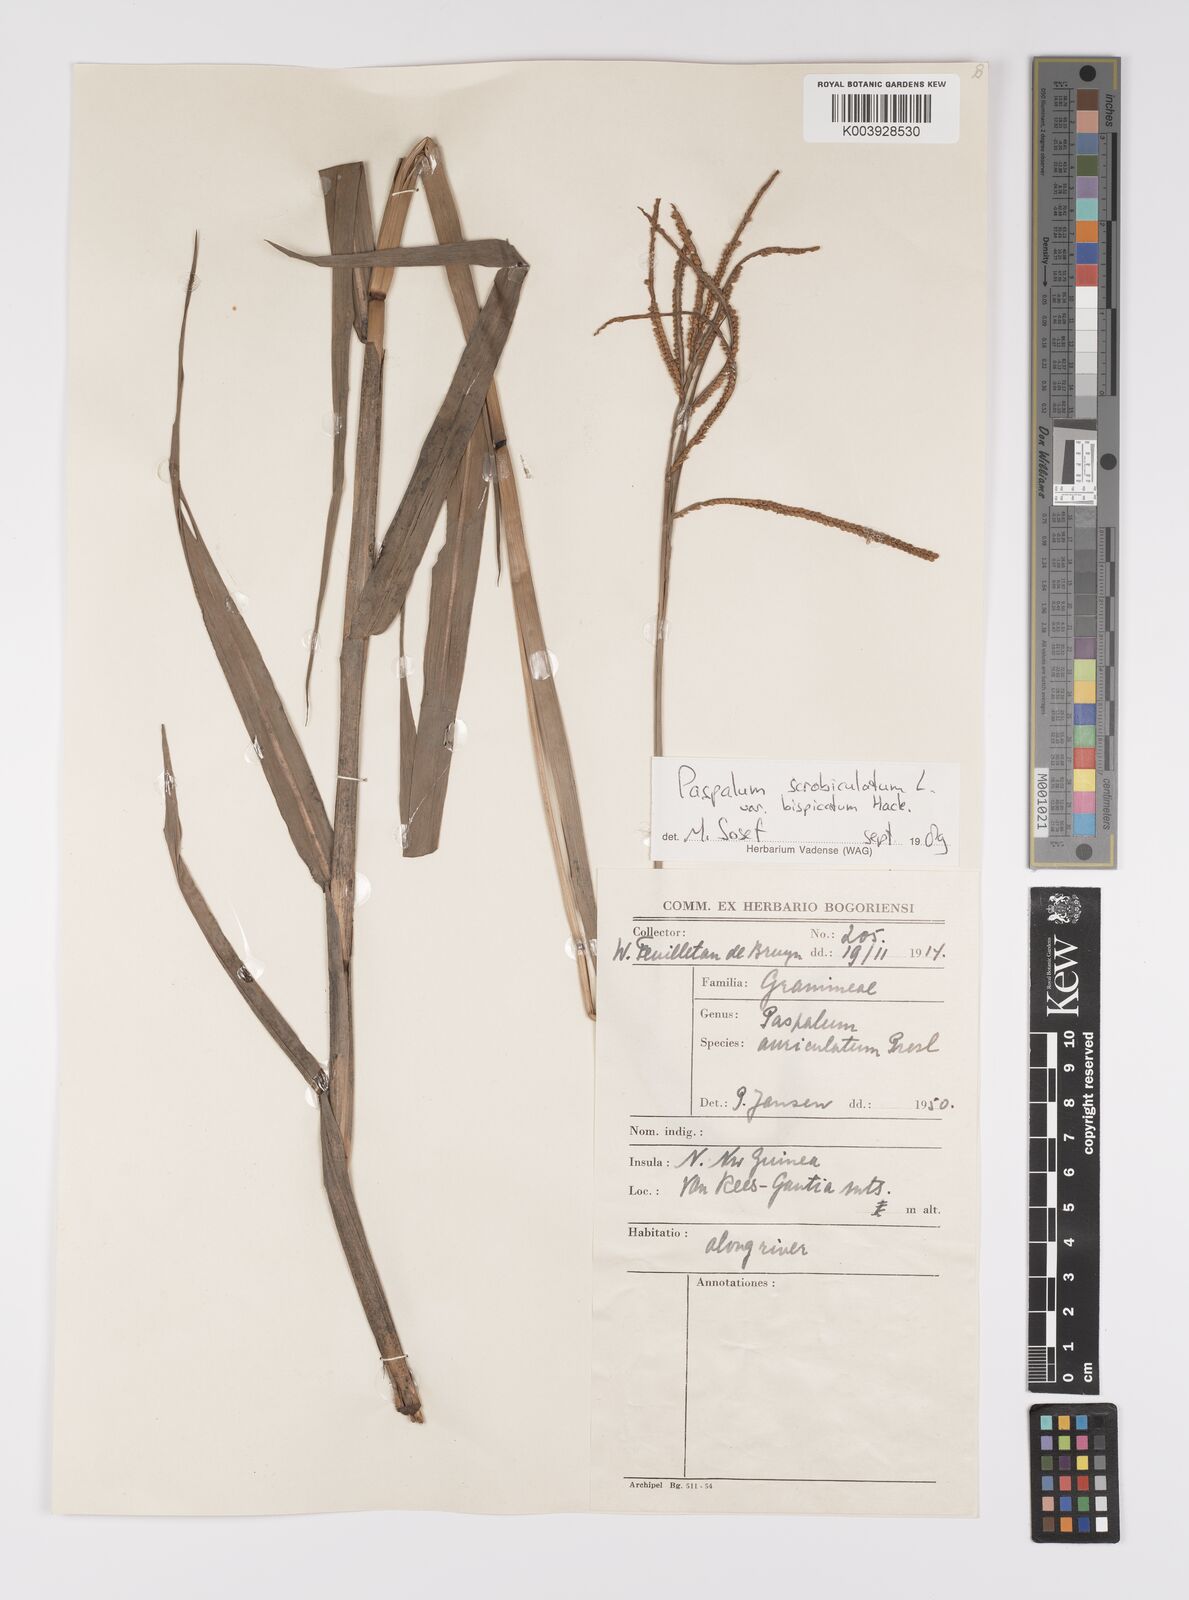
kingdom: Plantae
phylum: Tracheophyta
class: Liliopsida
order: Poales
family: Poaceae
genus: Paspalum
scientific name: Paspalum scrobiculatum
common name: Kodo millet
